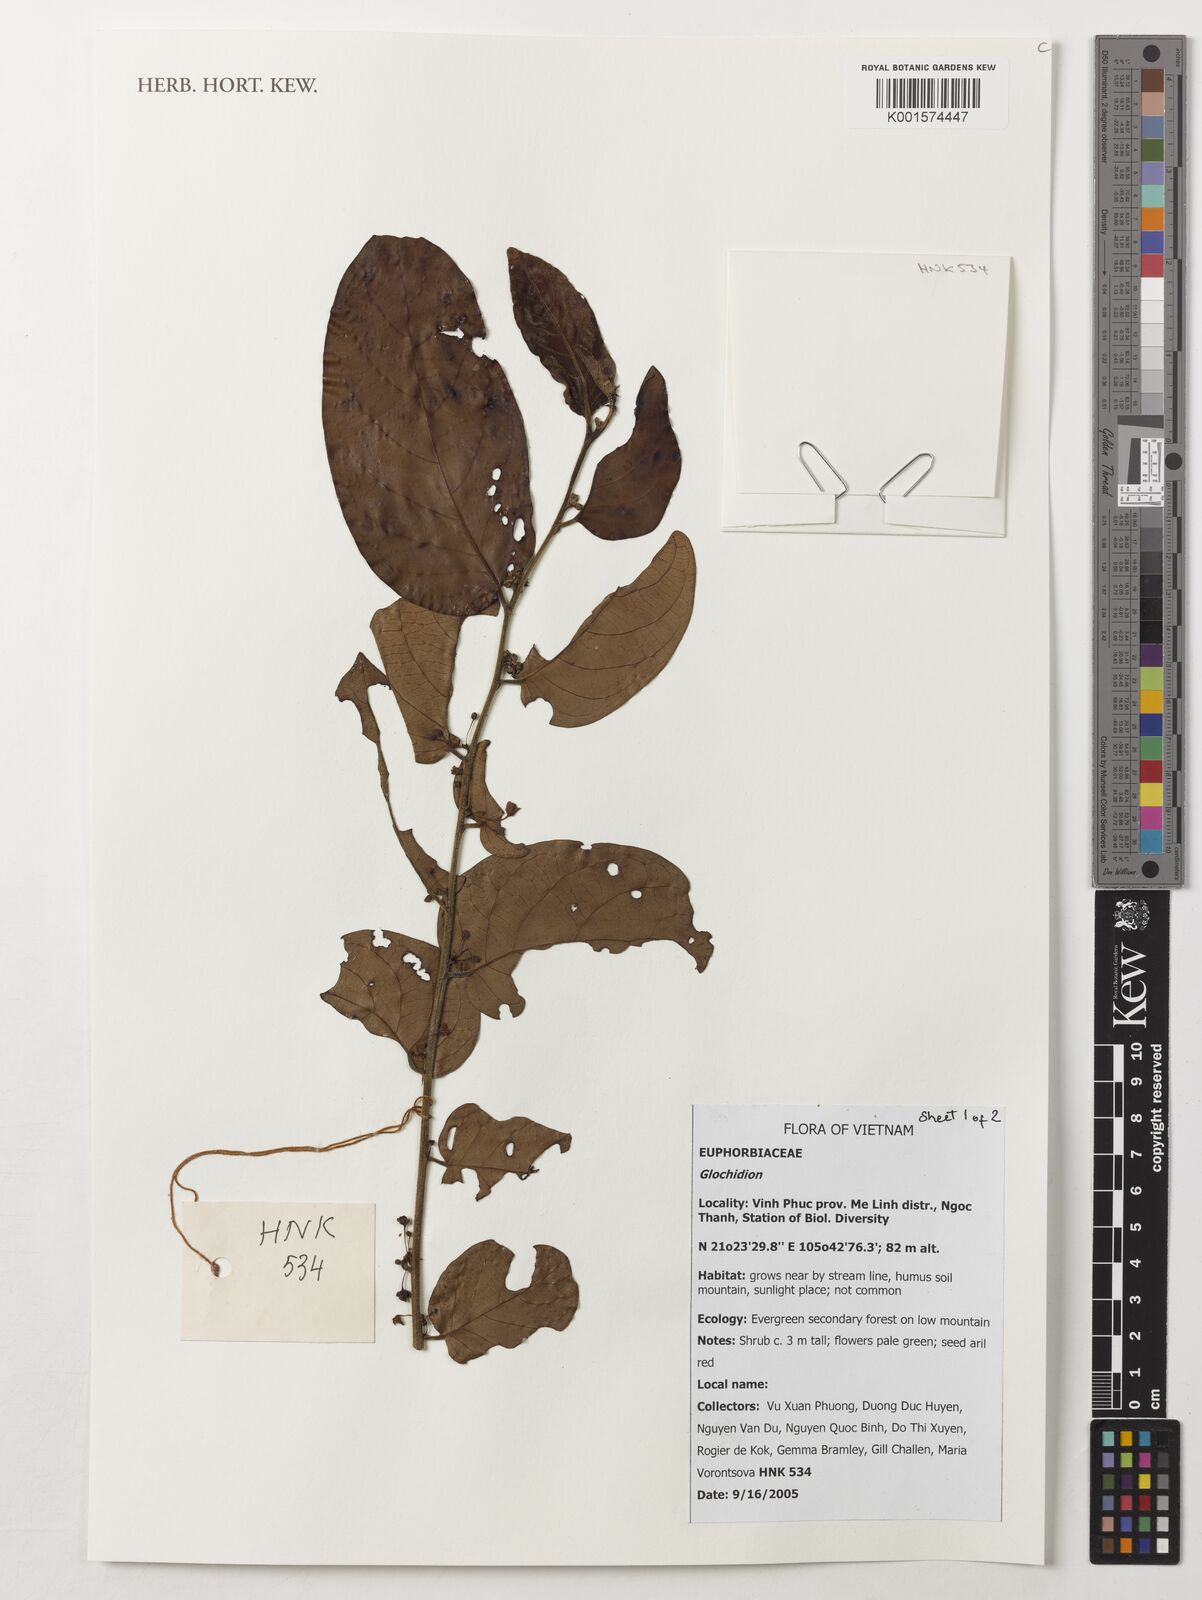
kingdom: Plantae
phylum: Tracheophyta
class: Magnoliopsida
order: Malpighiales
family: Phyllanthaceae
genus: Glochidion
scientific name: Glochidion
